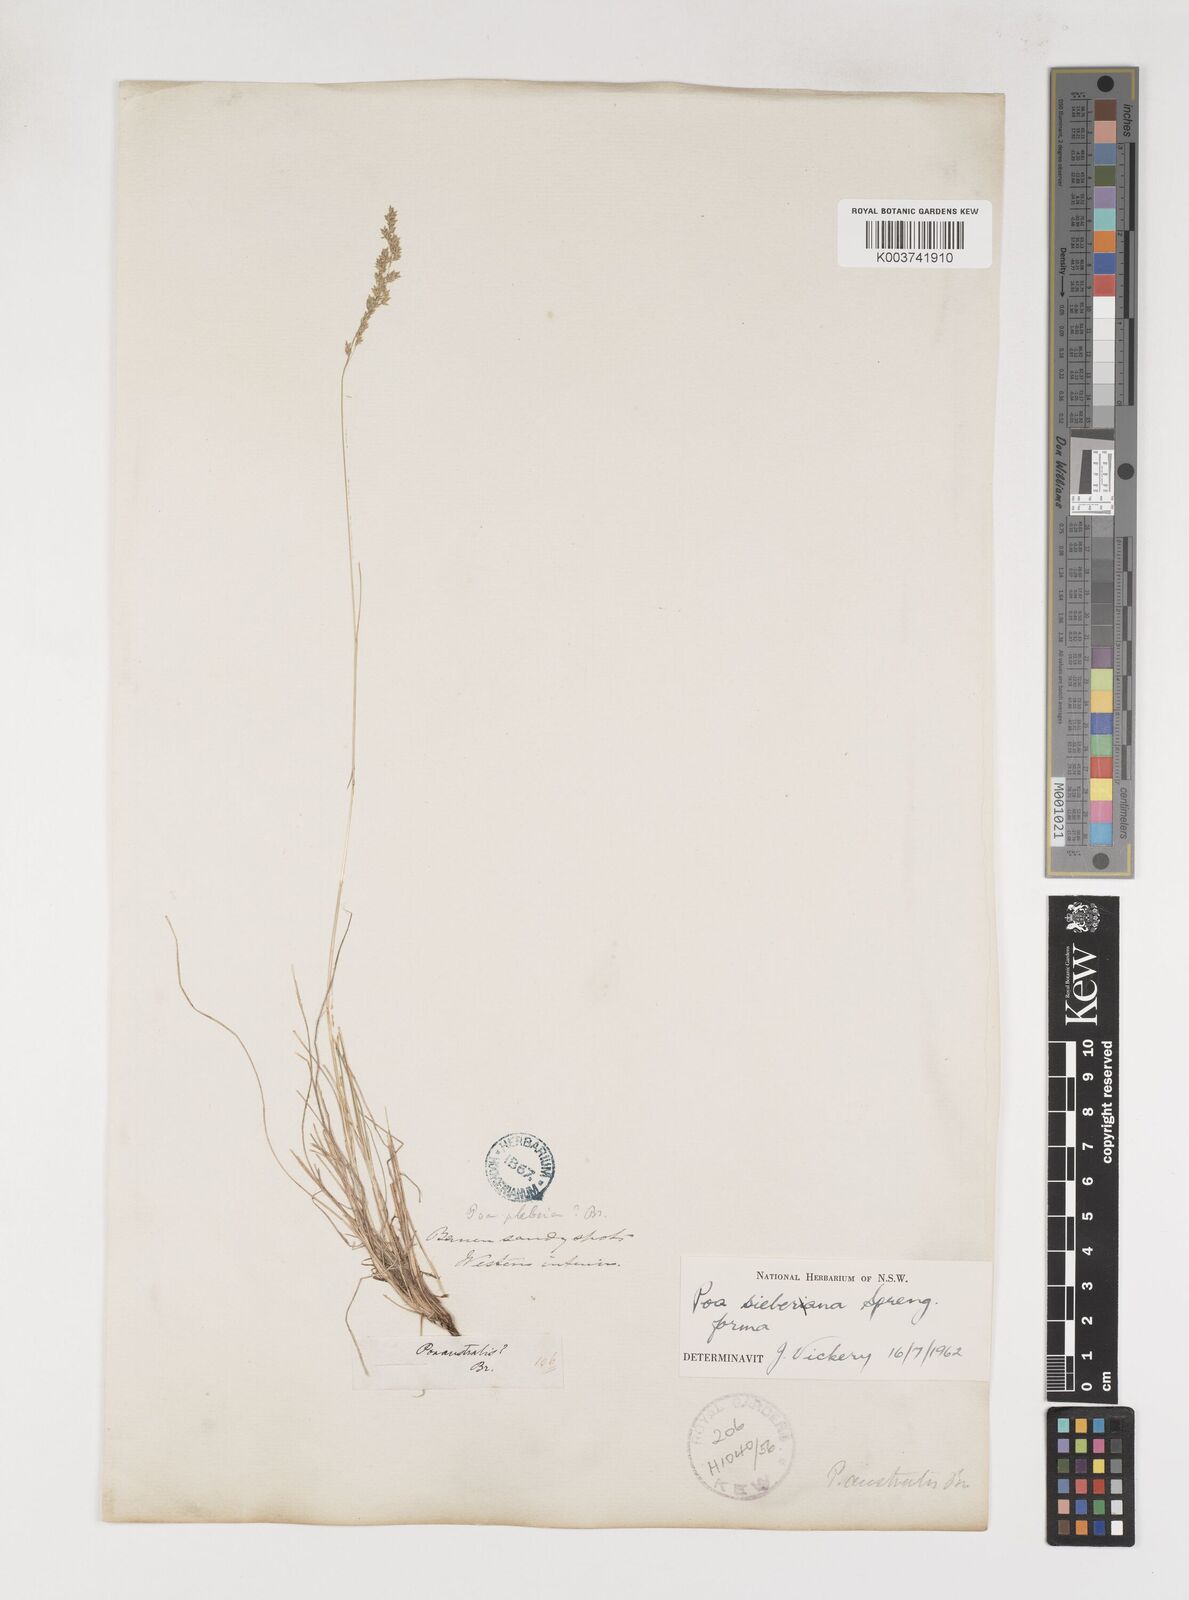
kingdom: Plantae
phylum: Tracheophyta
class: Liliopsida
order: Poales
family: Poaceae
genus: Poa
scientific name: Poa sieberiana
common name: Tussock poa
